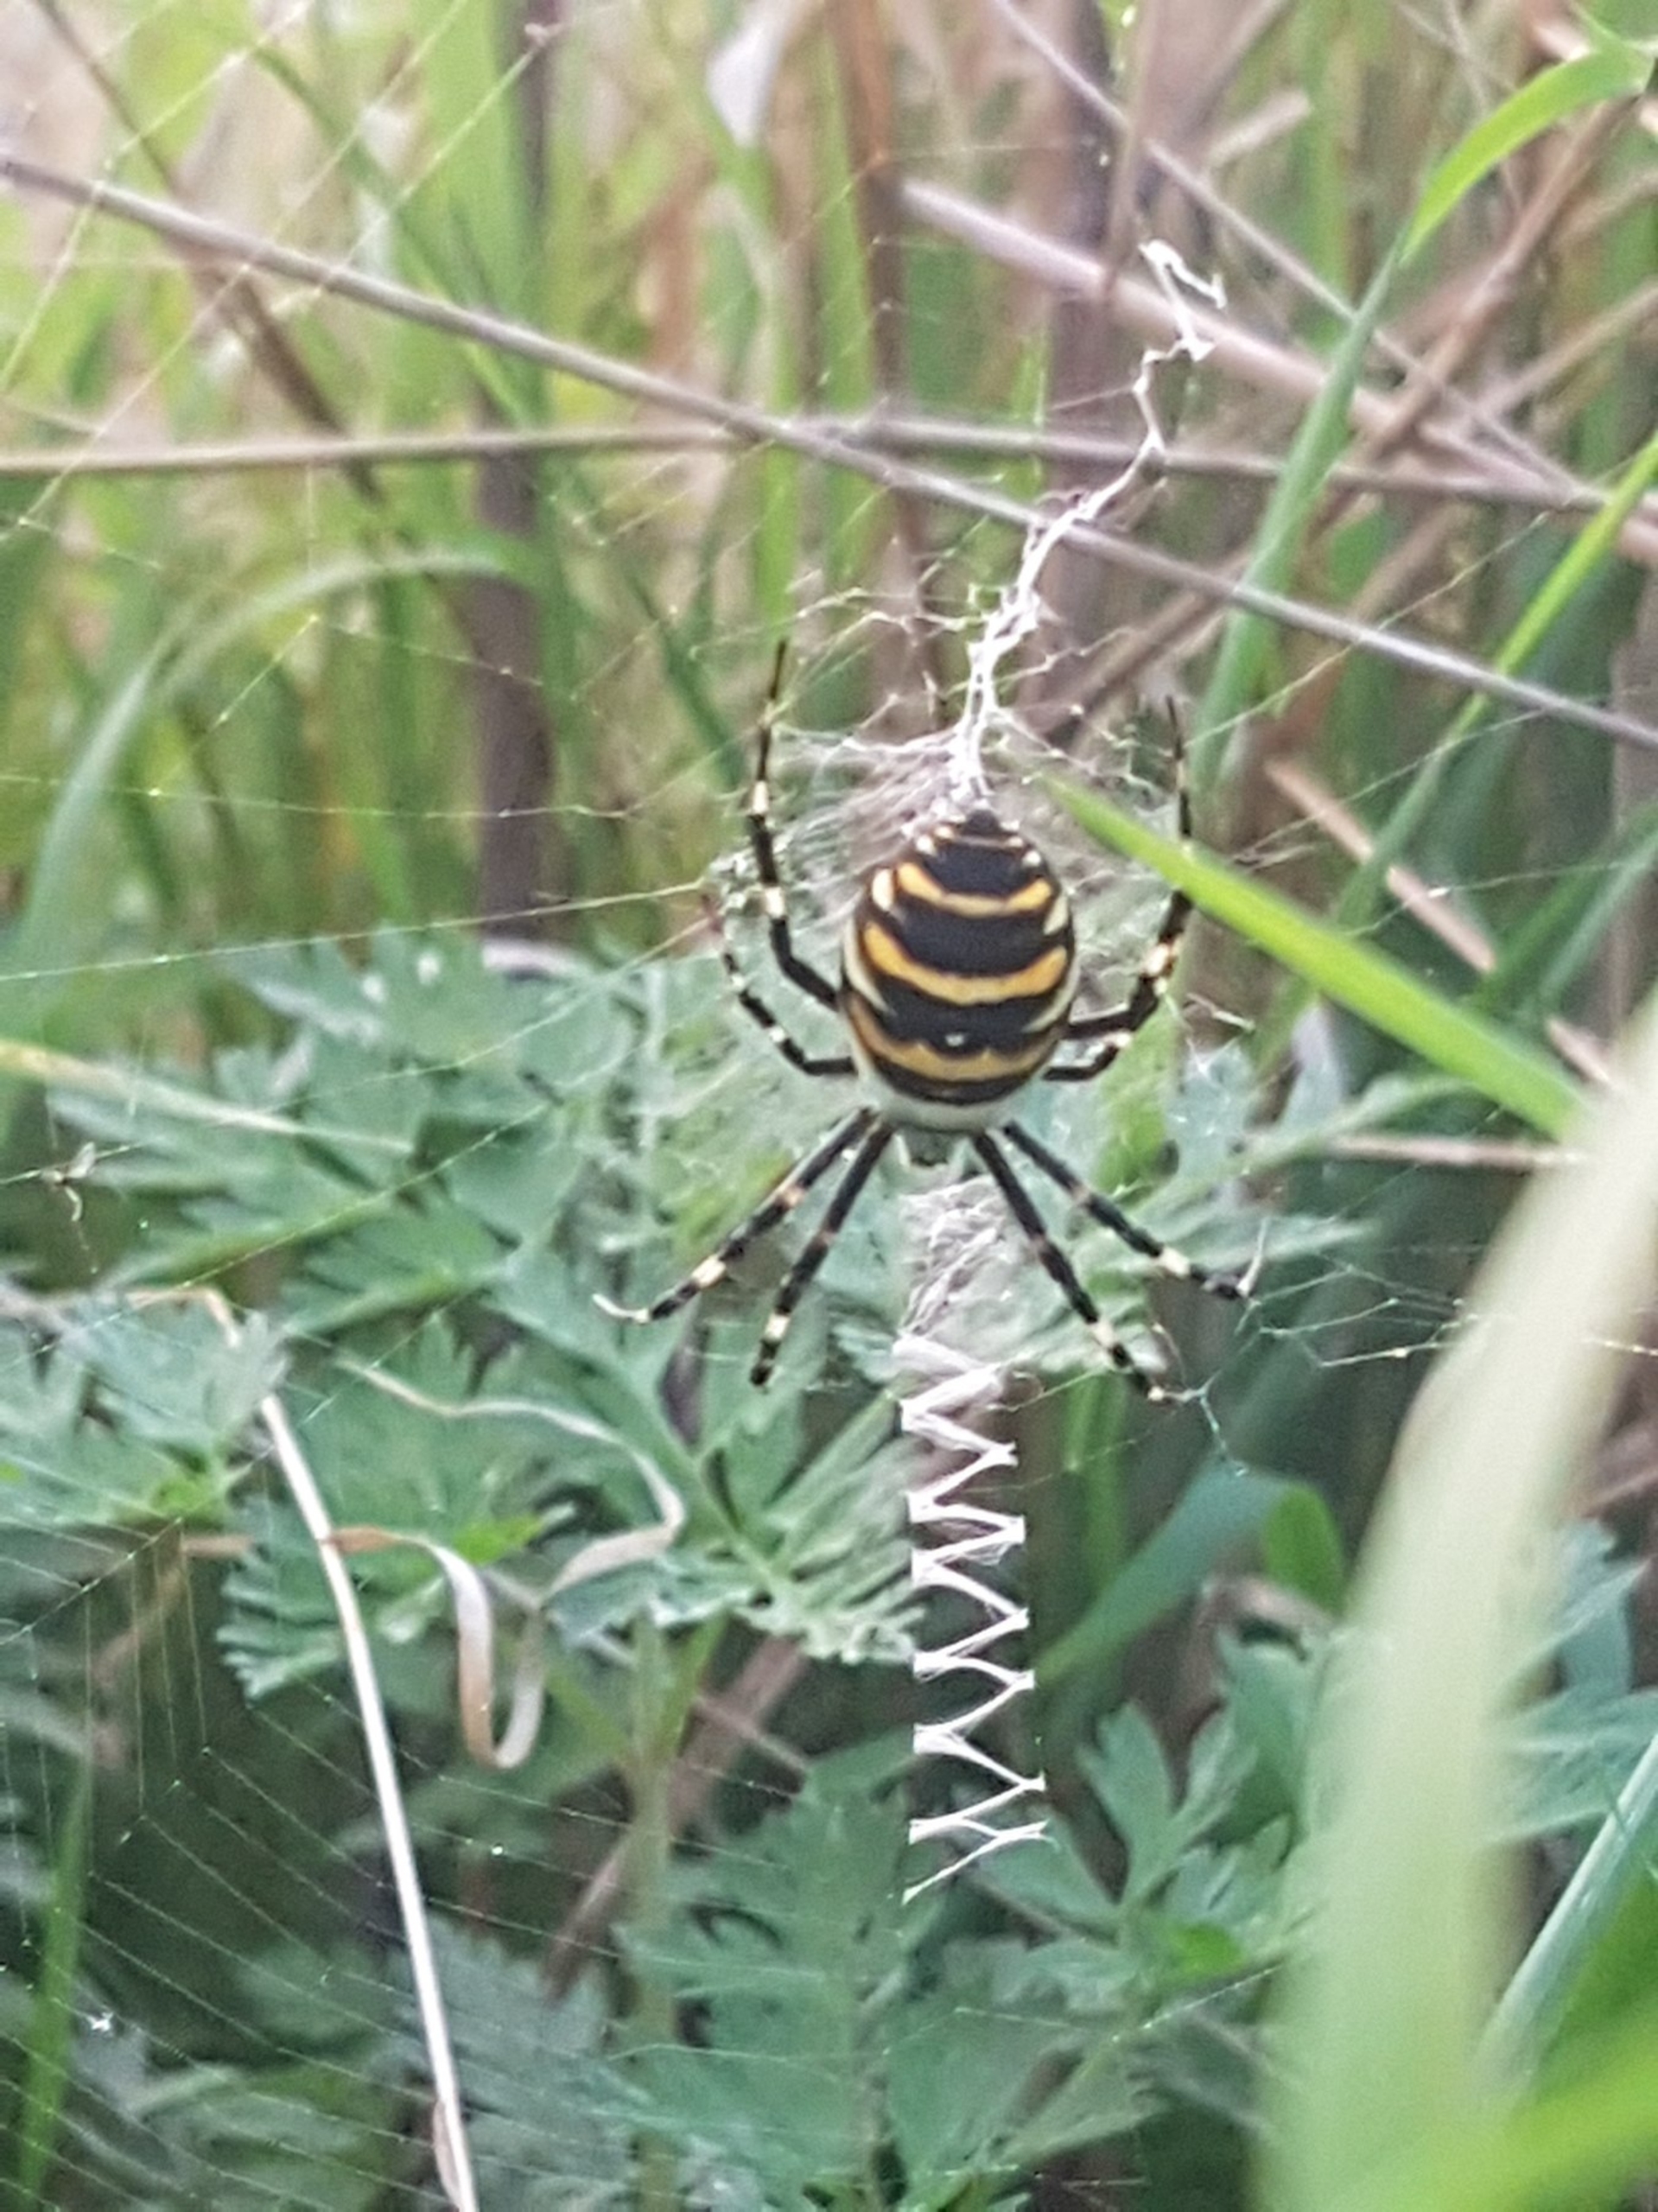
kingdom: Animalia
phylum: Arthropoda
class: Arachnida
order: Araneae
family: Araneidae
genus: Argiope
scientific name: Argiope bruennichi
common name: Hvepseedderkop
